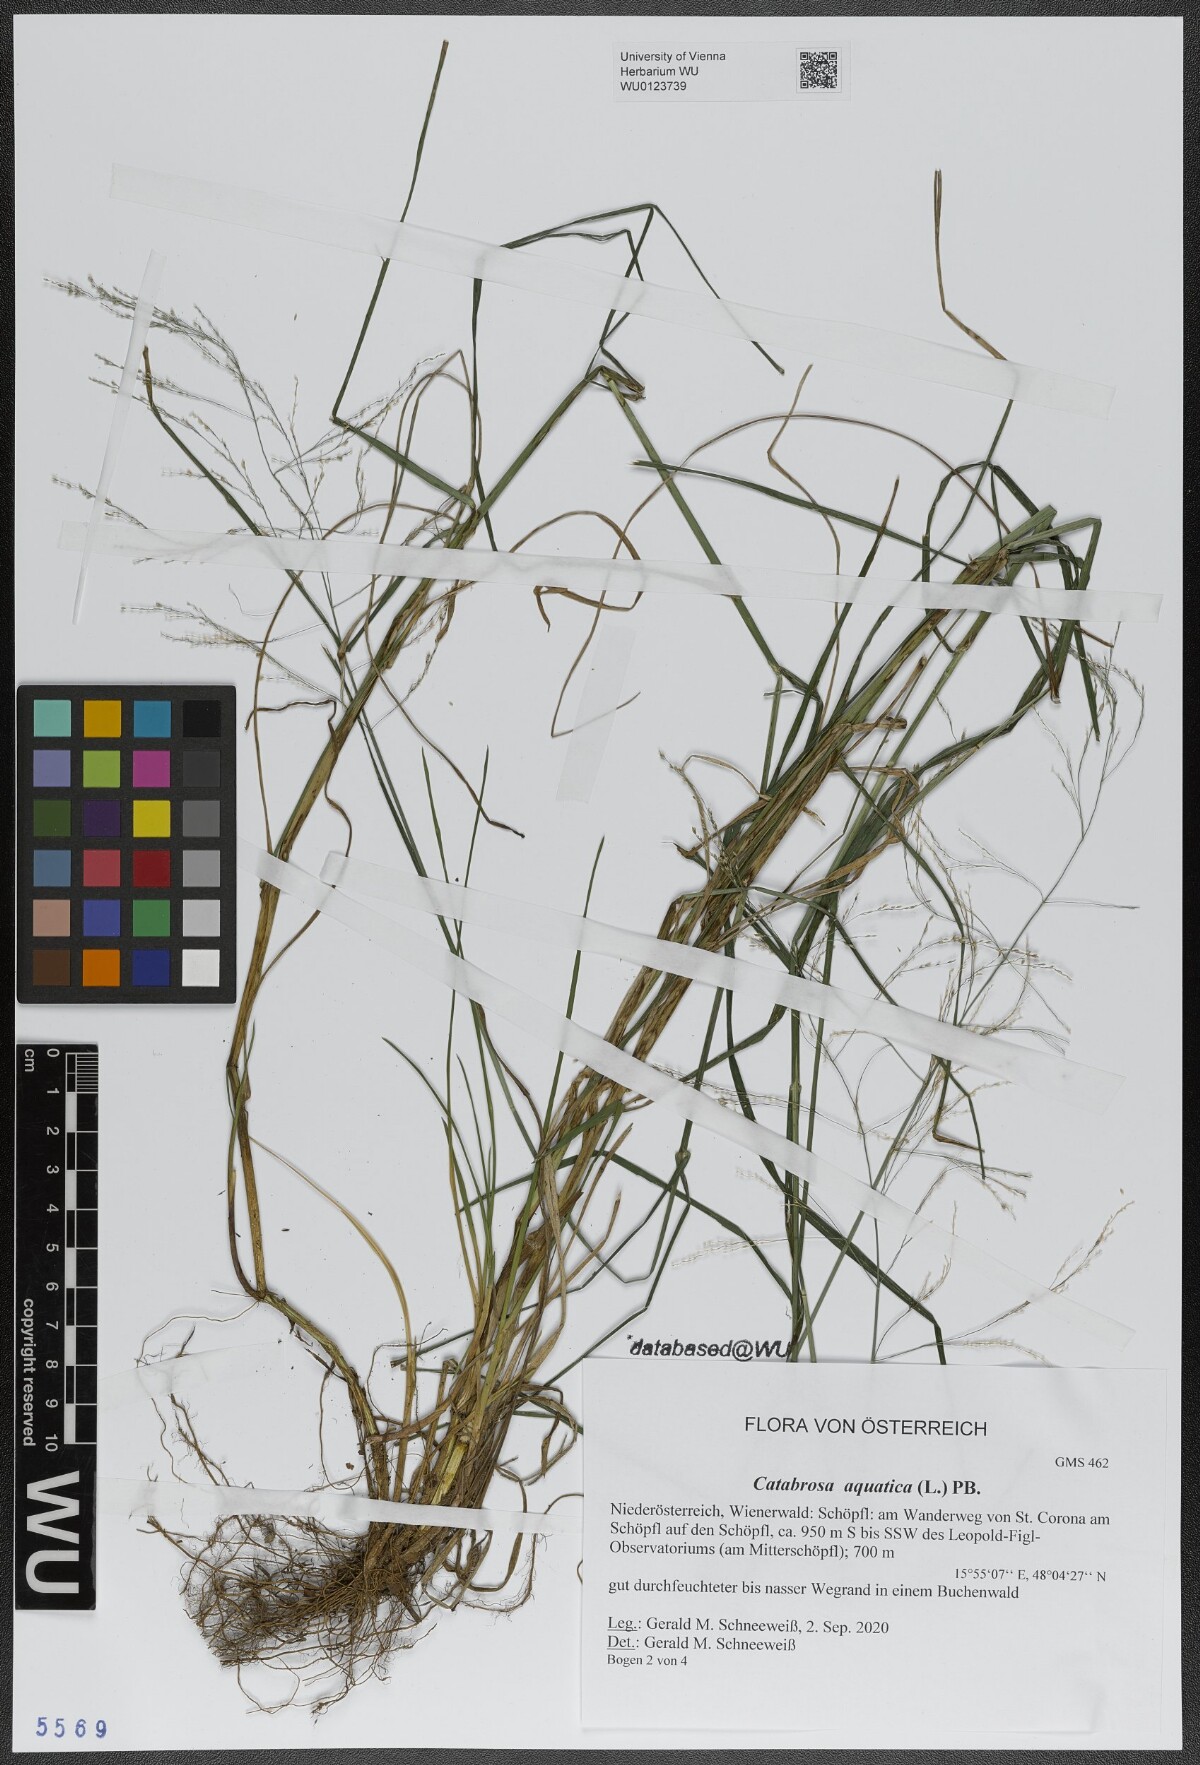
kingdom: Plantae
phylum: Tracheophyta
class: Liliopsida
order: Poales
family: Poaceae
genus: Catabrosa
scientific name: Catabrosa aquatica
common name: Whorl-grass
